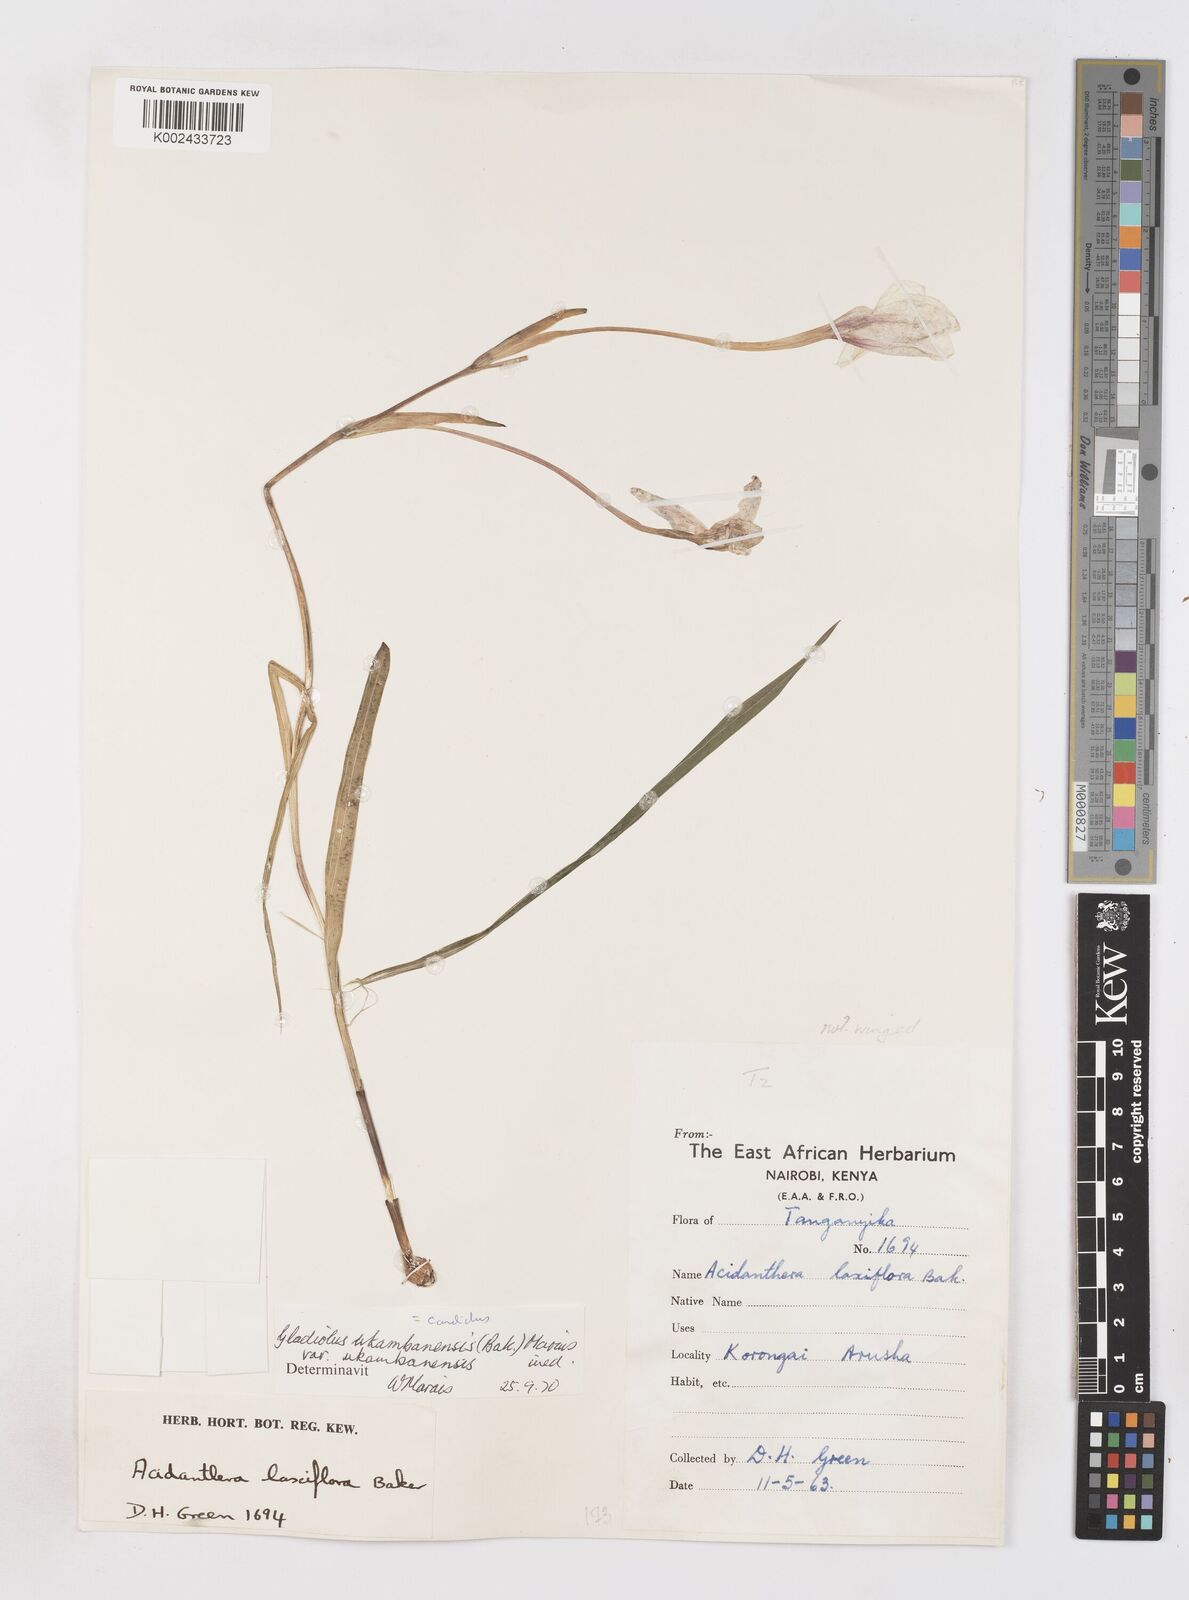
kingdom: Plantae
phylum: Tracheophyta
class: Liliopsida
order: Asparagales
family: Iridaceae
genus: Gladiolus
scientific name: Gladiolus candidus
